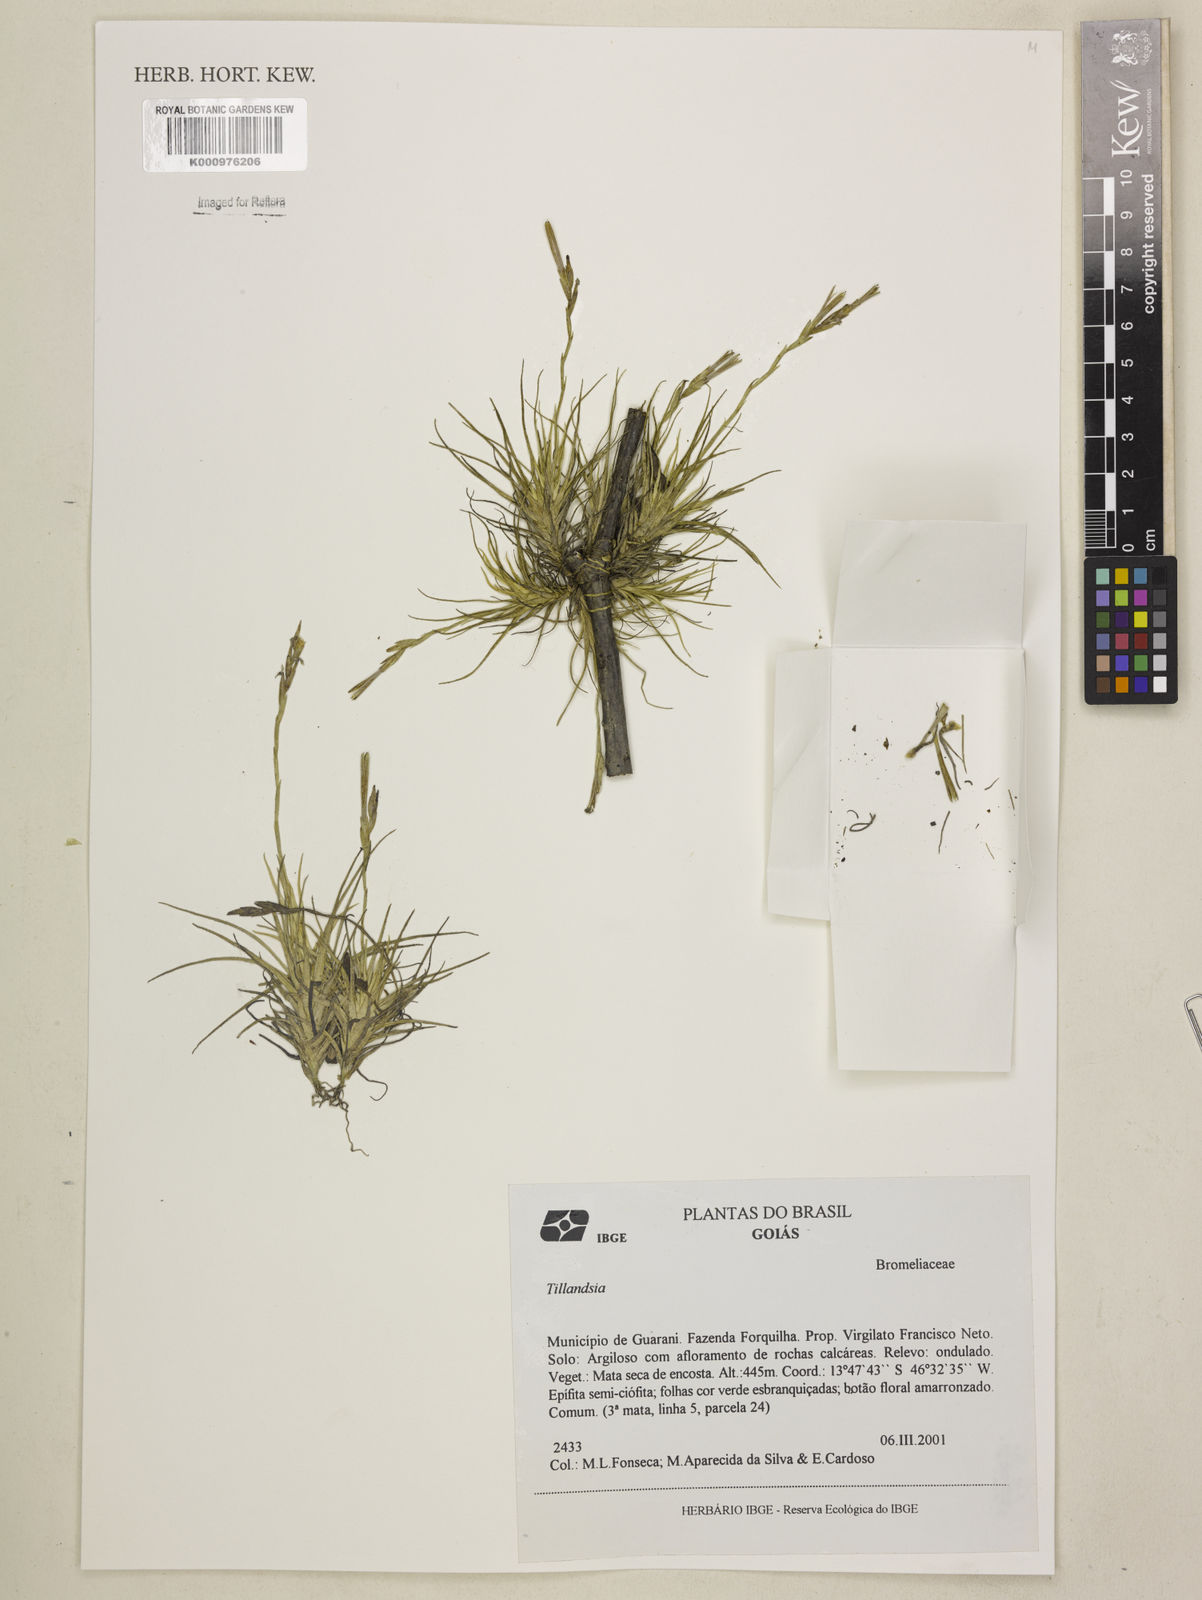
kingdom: Plantae
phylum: Tracheophyta
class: Liliopsida
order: Poales
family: Bromeliaceae
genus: Tillandsia
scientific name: Tillandsia
